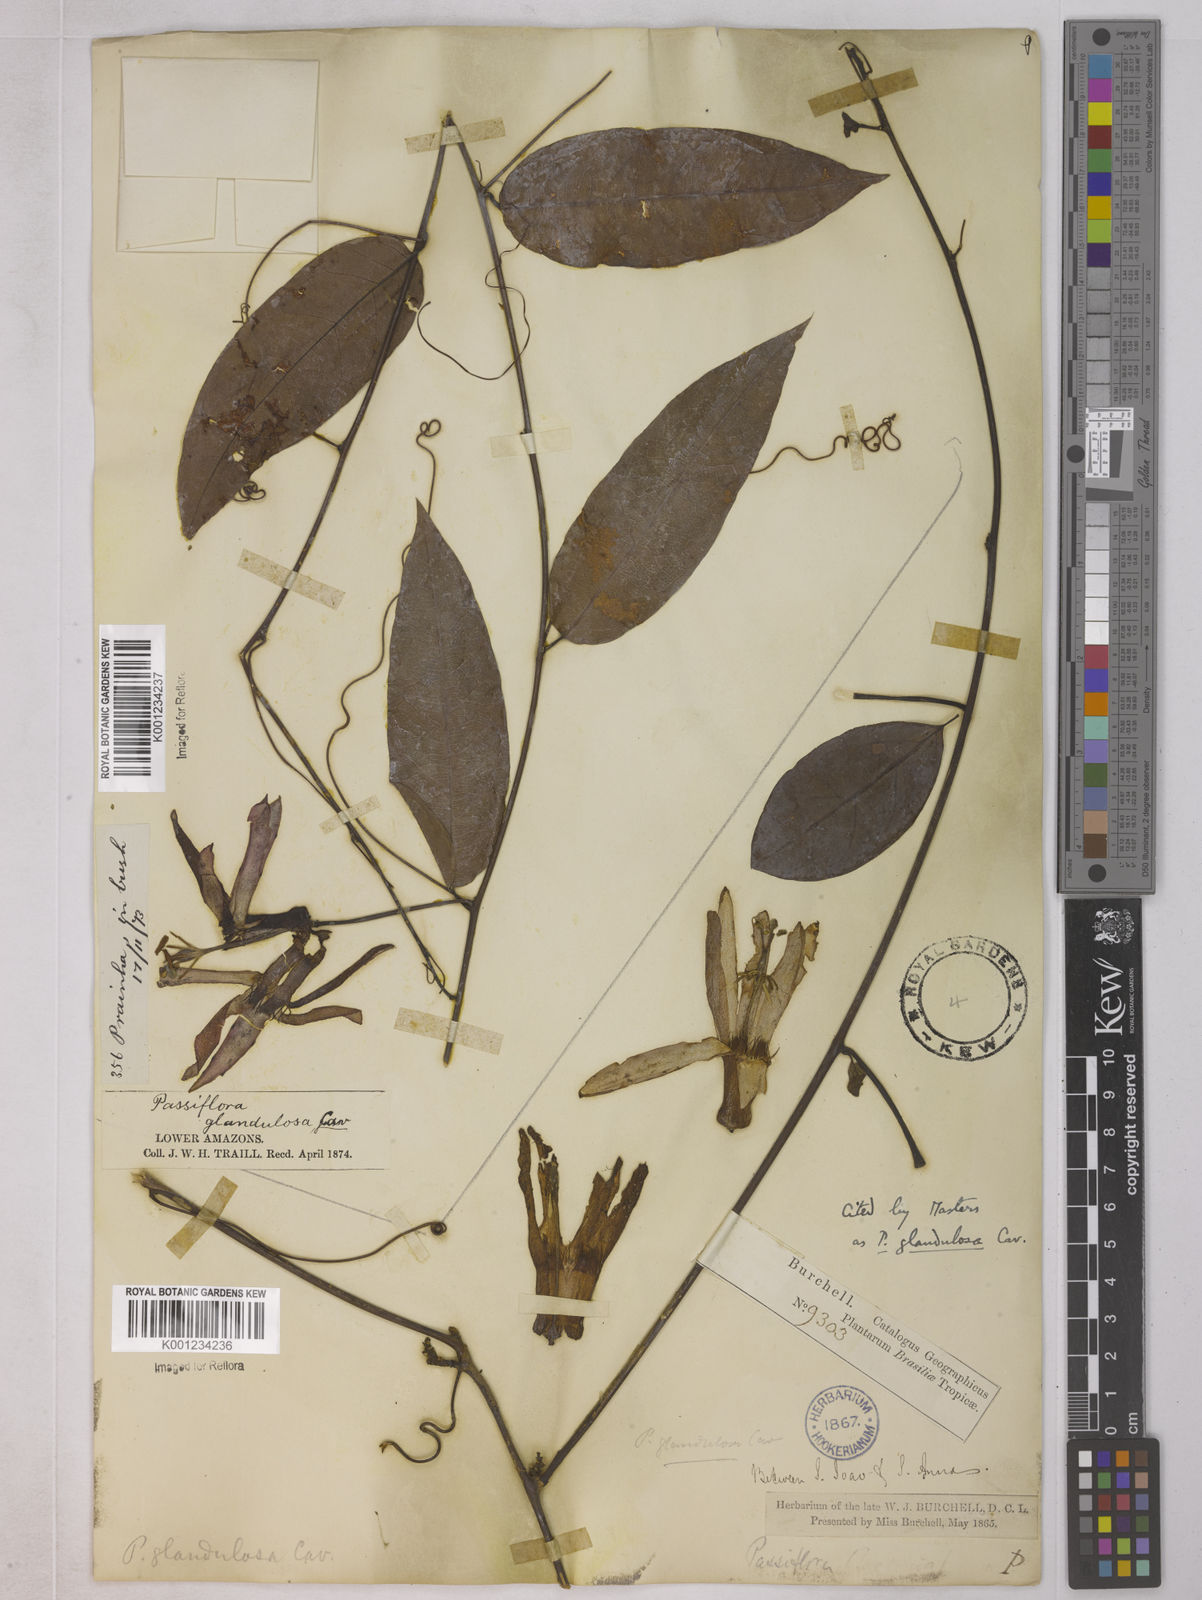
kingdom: Plantae
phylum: Tracheophyta
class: Magnoliopsida
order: Malpighiales
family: Passifloraceae
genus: Passiflora
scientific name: Passiflora glandulosa
